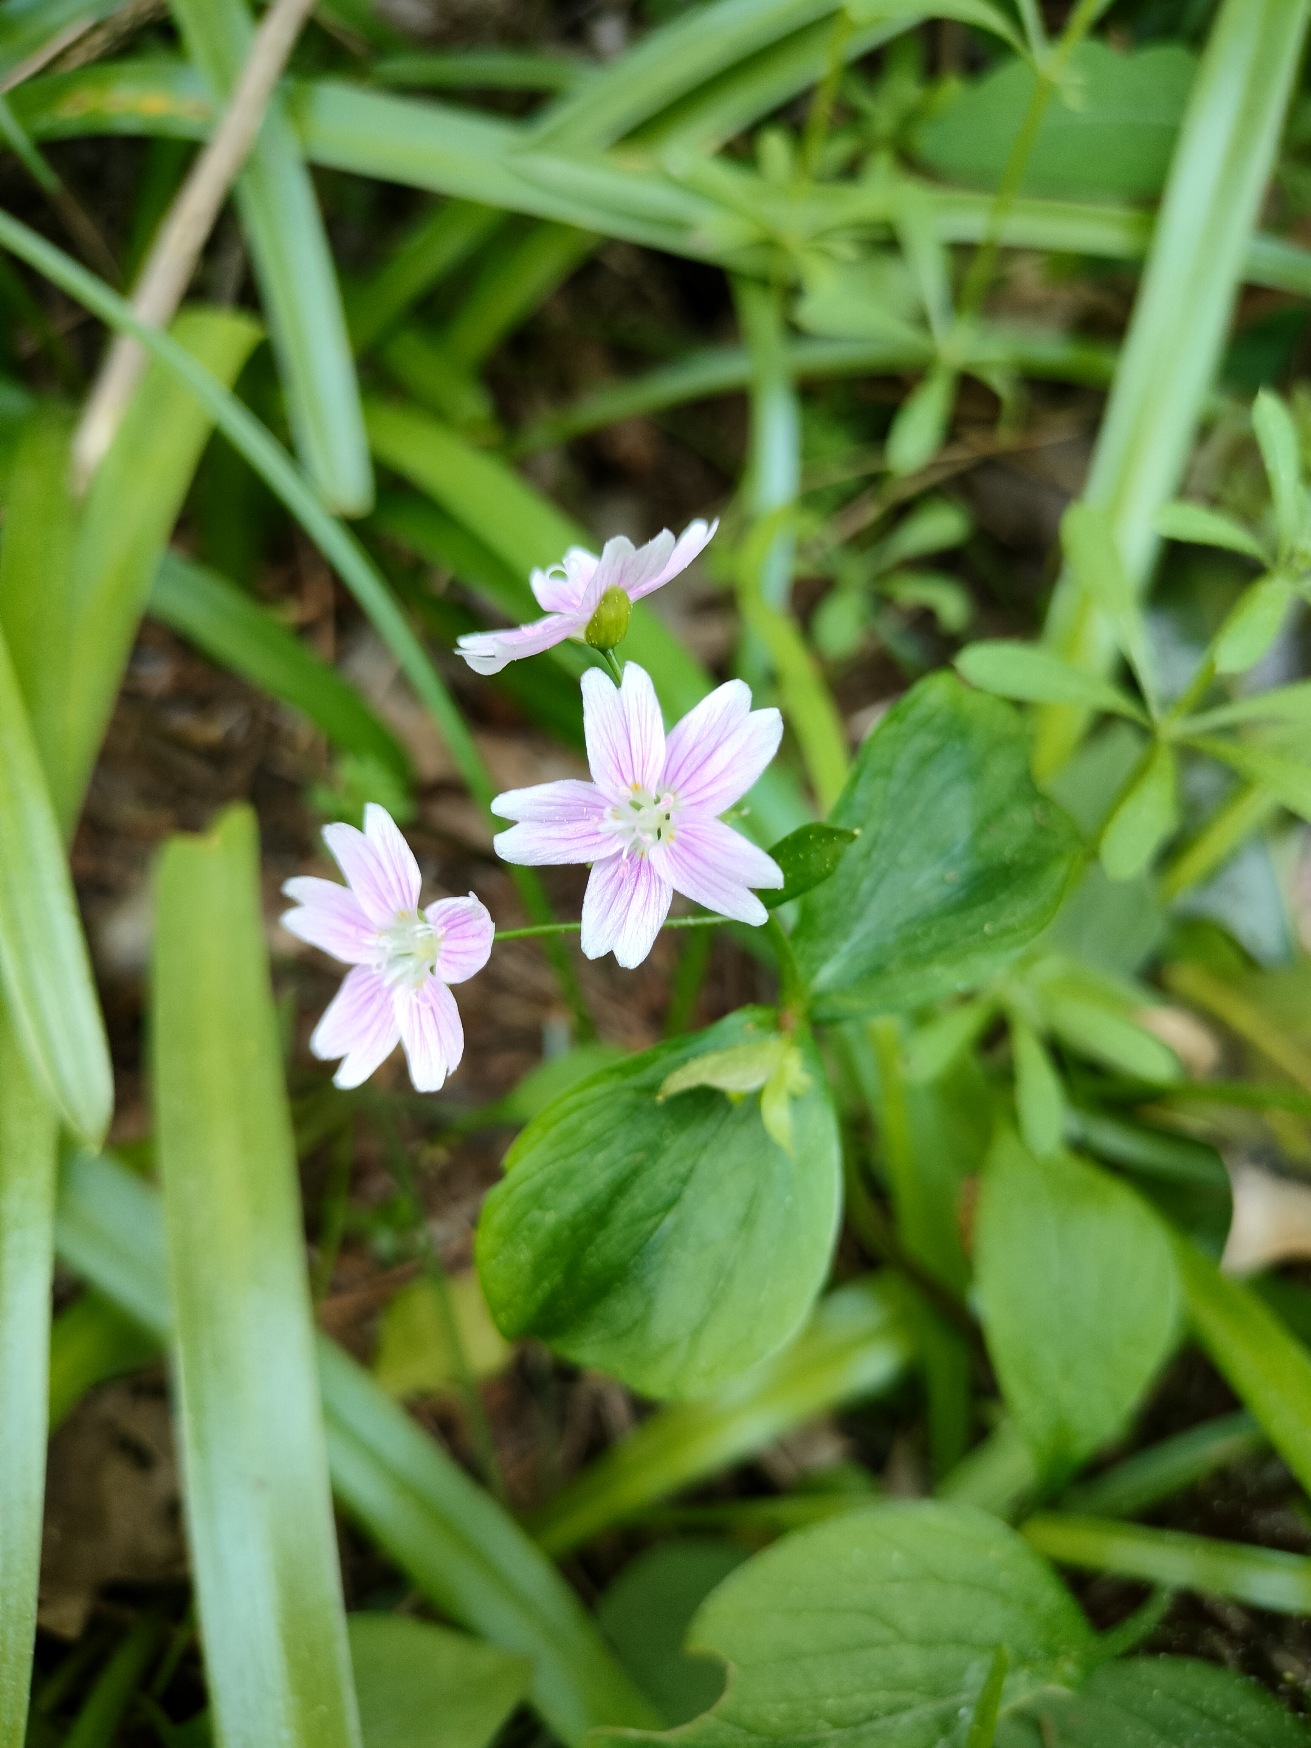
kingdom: Plantae
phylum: Tracheophyta
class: Magnoliopsida
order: Caryophyllales
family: Montiaceae
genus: Claytonia
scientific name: Claytonia sibirica
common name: Sibirisk vinterportulak
